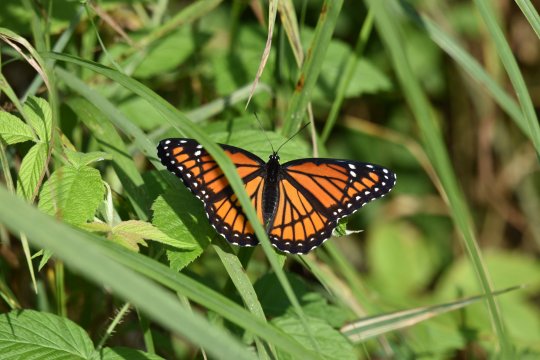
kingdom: Animalia
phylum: Arthropoda
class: Insecta
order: Lepidoptera
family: Nymphalidae
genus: Limenitis
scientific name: Limenitis archippus
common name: Viceroy
